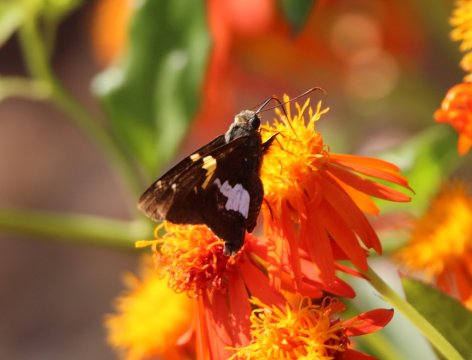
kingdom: Animalia
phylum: Arthropoda
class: Insecta
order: Lepidoptera
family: Hesperiidae
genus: Epargyreus
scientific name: Epargyreus clarus
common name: Silver-spotted Skipper
